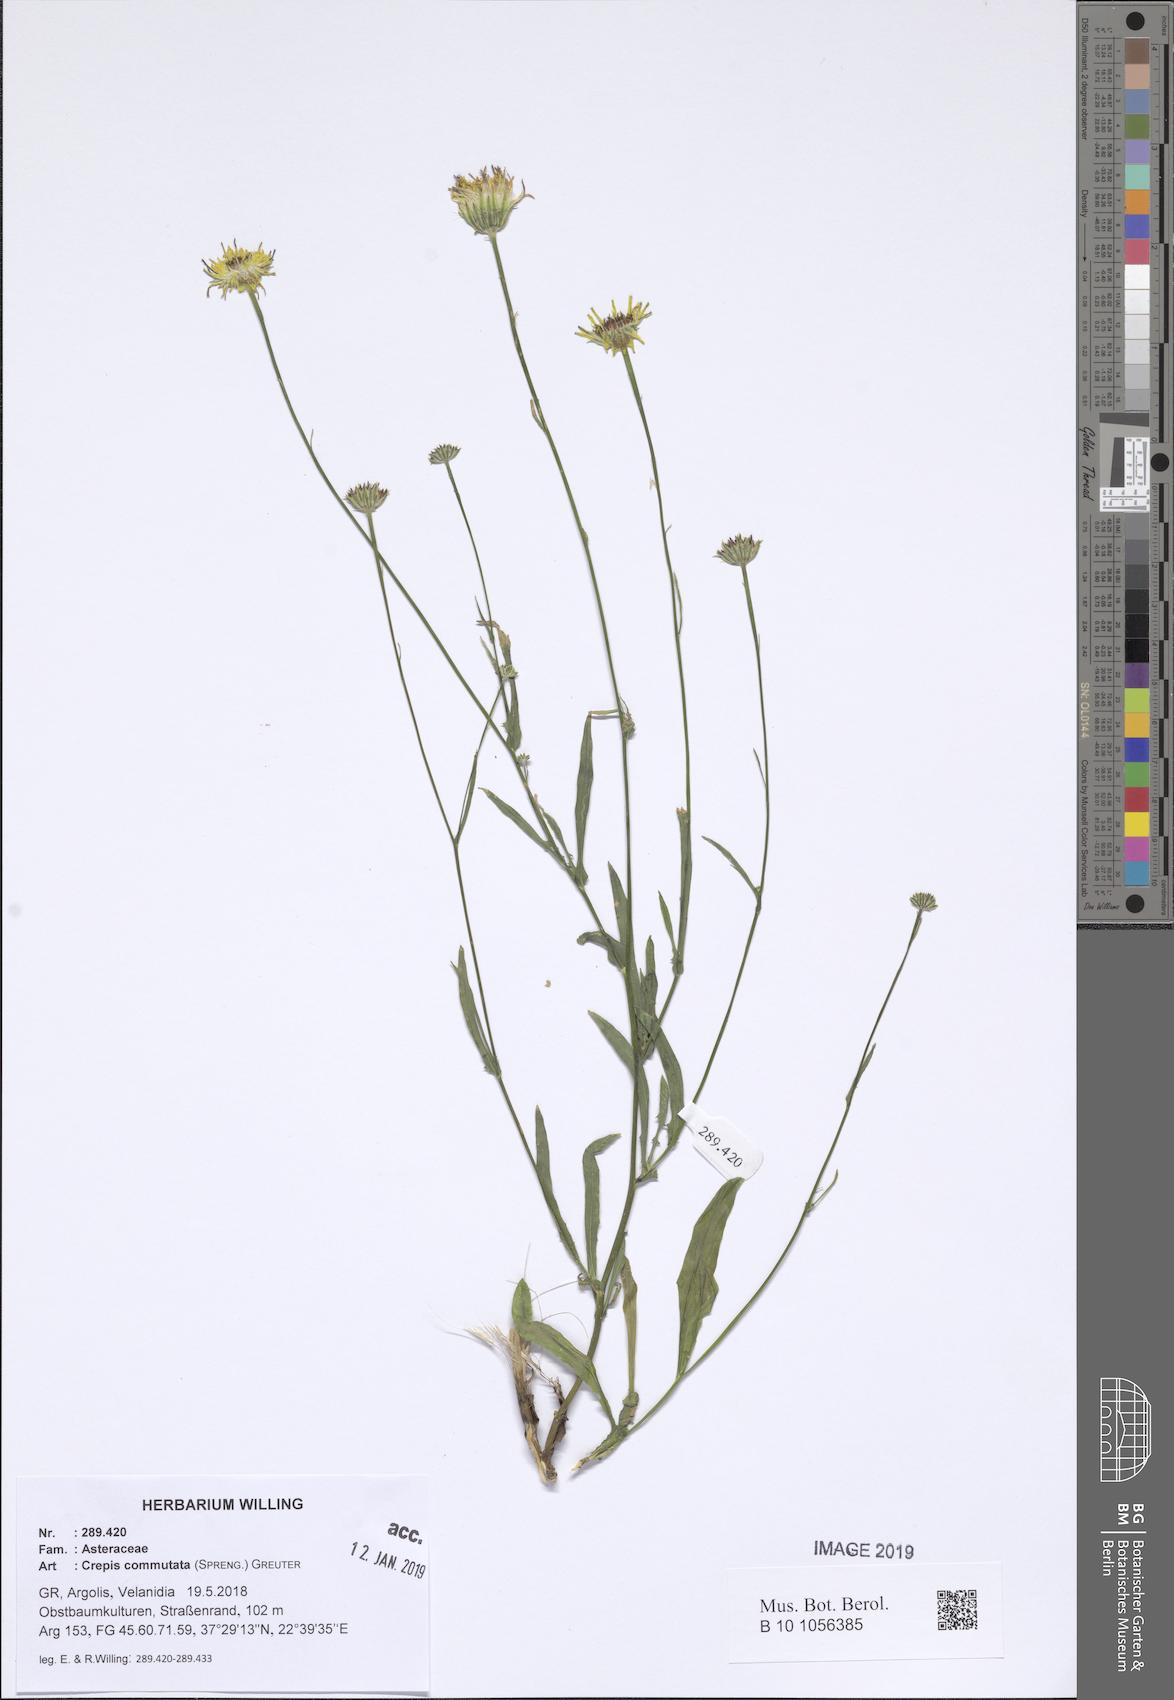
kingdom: Plantae
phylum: Tracheophyta
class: Magnoliopsida
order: Asterales
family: Asteraceae
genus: Crepis
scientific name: Crepis commutata
